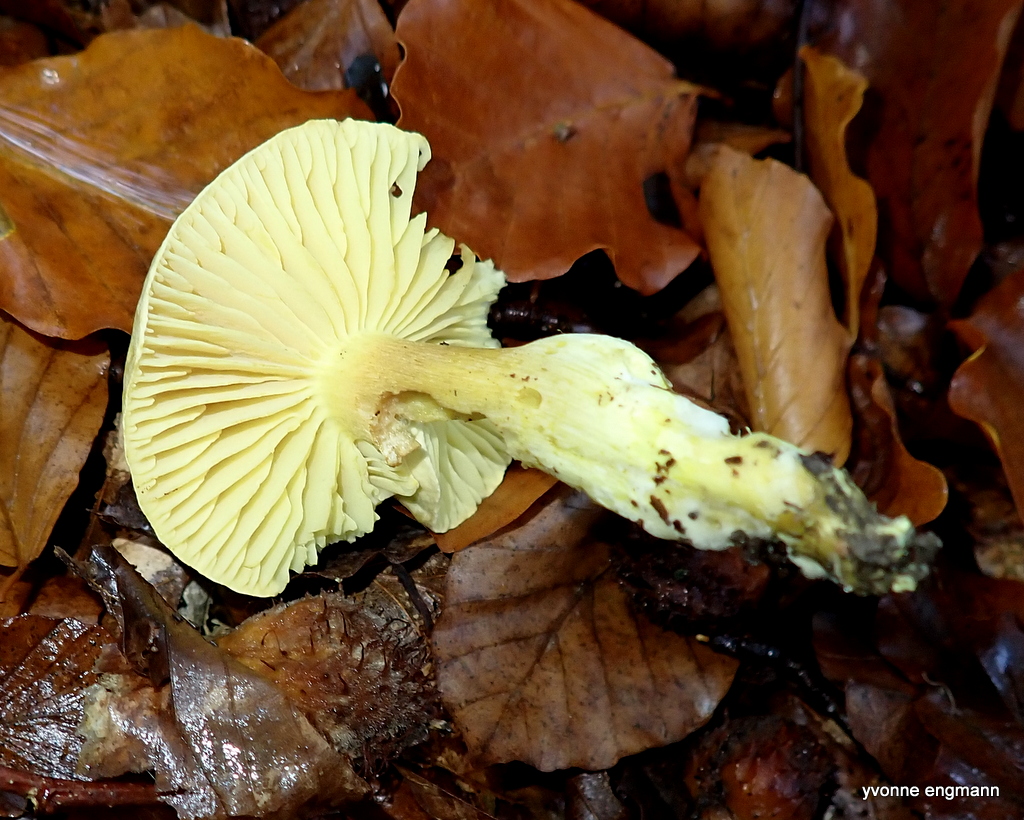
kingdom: Fungi
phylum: Basidiomycota
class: Agaricomycetes
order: Agaricales
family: Tricholomataceae
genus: Tricholoma
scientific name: Tricholoma sulphureum
